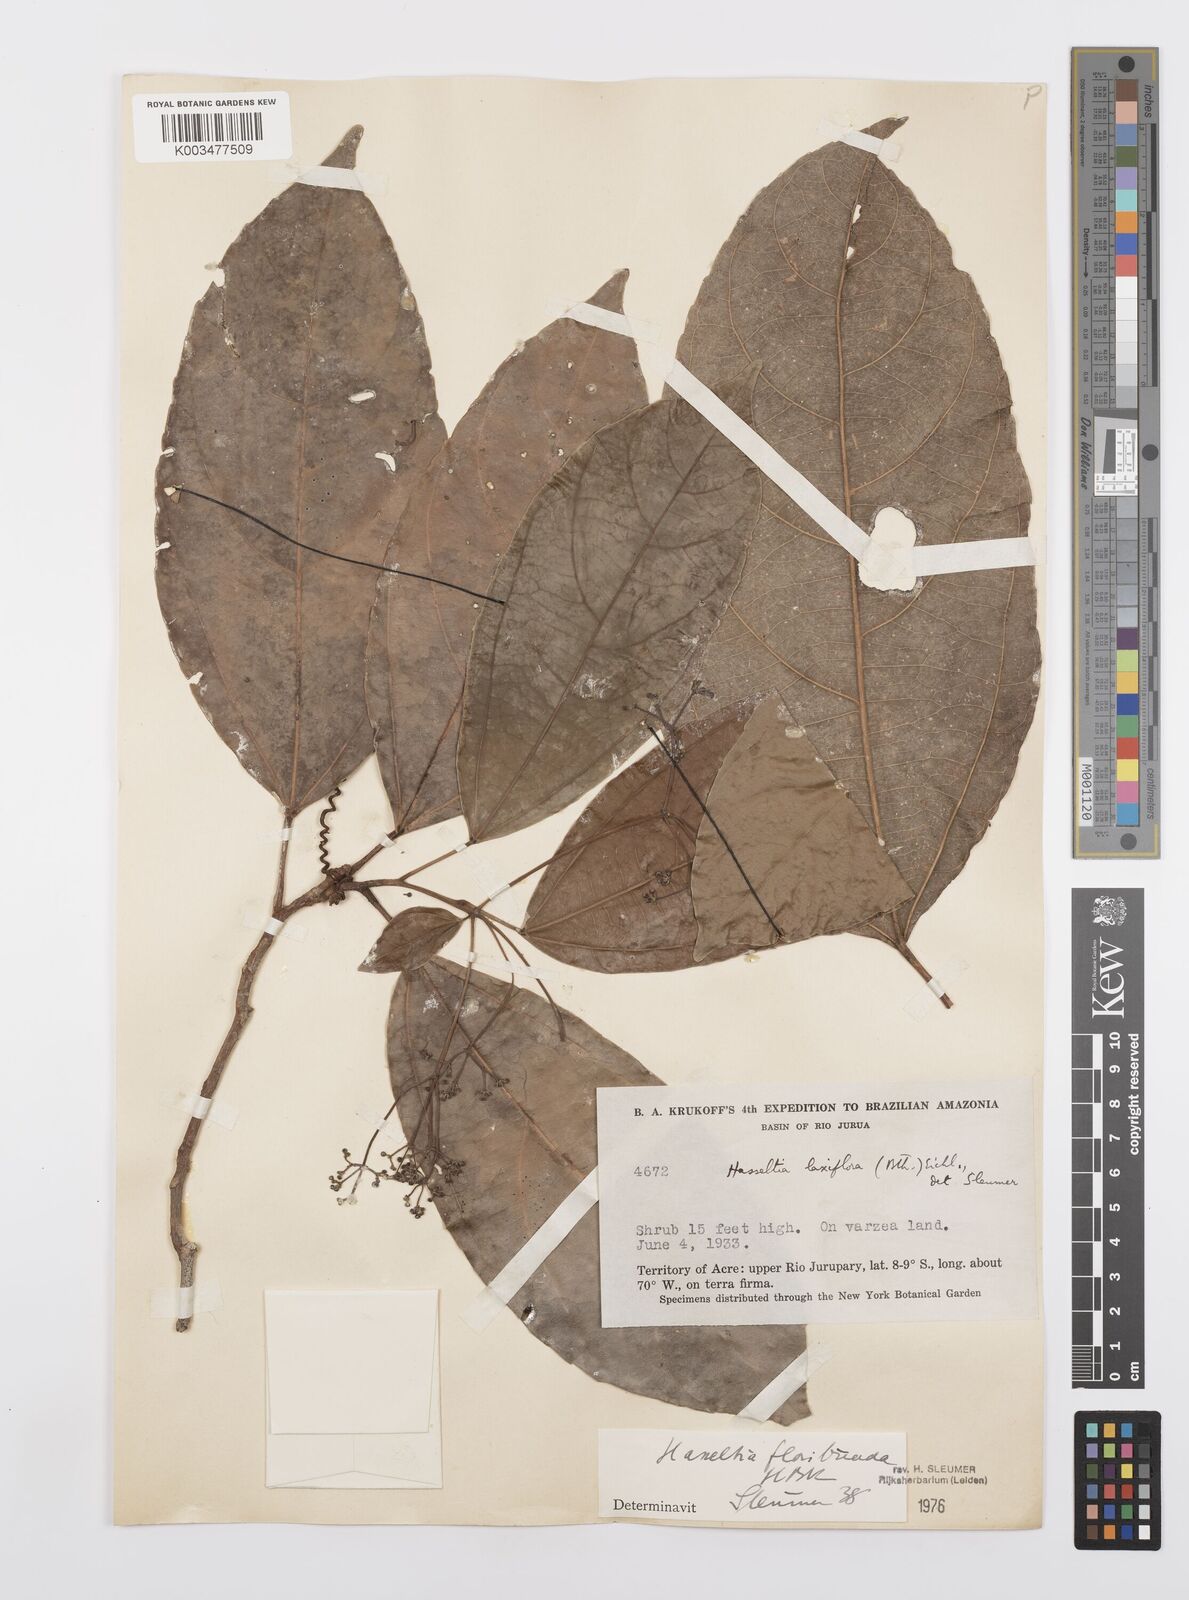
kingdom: Plantae
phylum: Tracheophyta
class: Magnoliopsida
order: Malpighiales
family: Salicaceae
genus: Hasseltia
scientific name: Hasseltia floribunda
